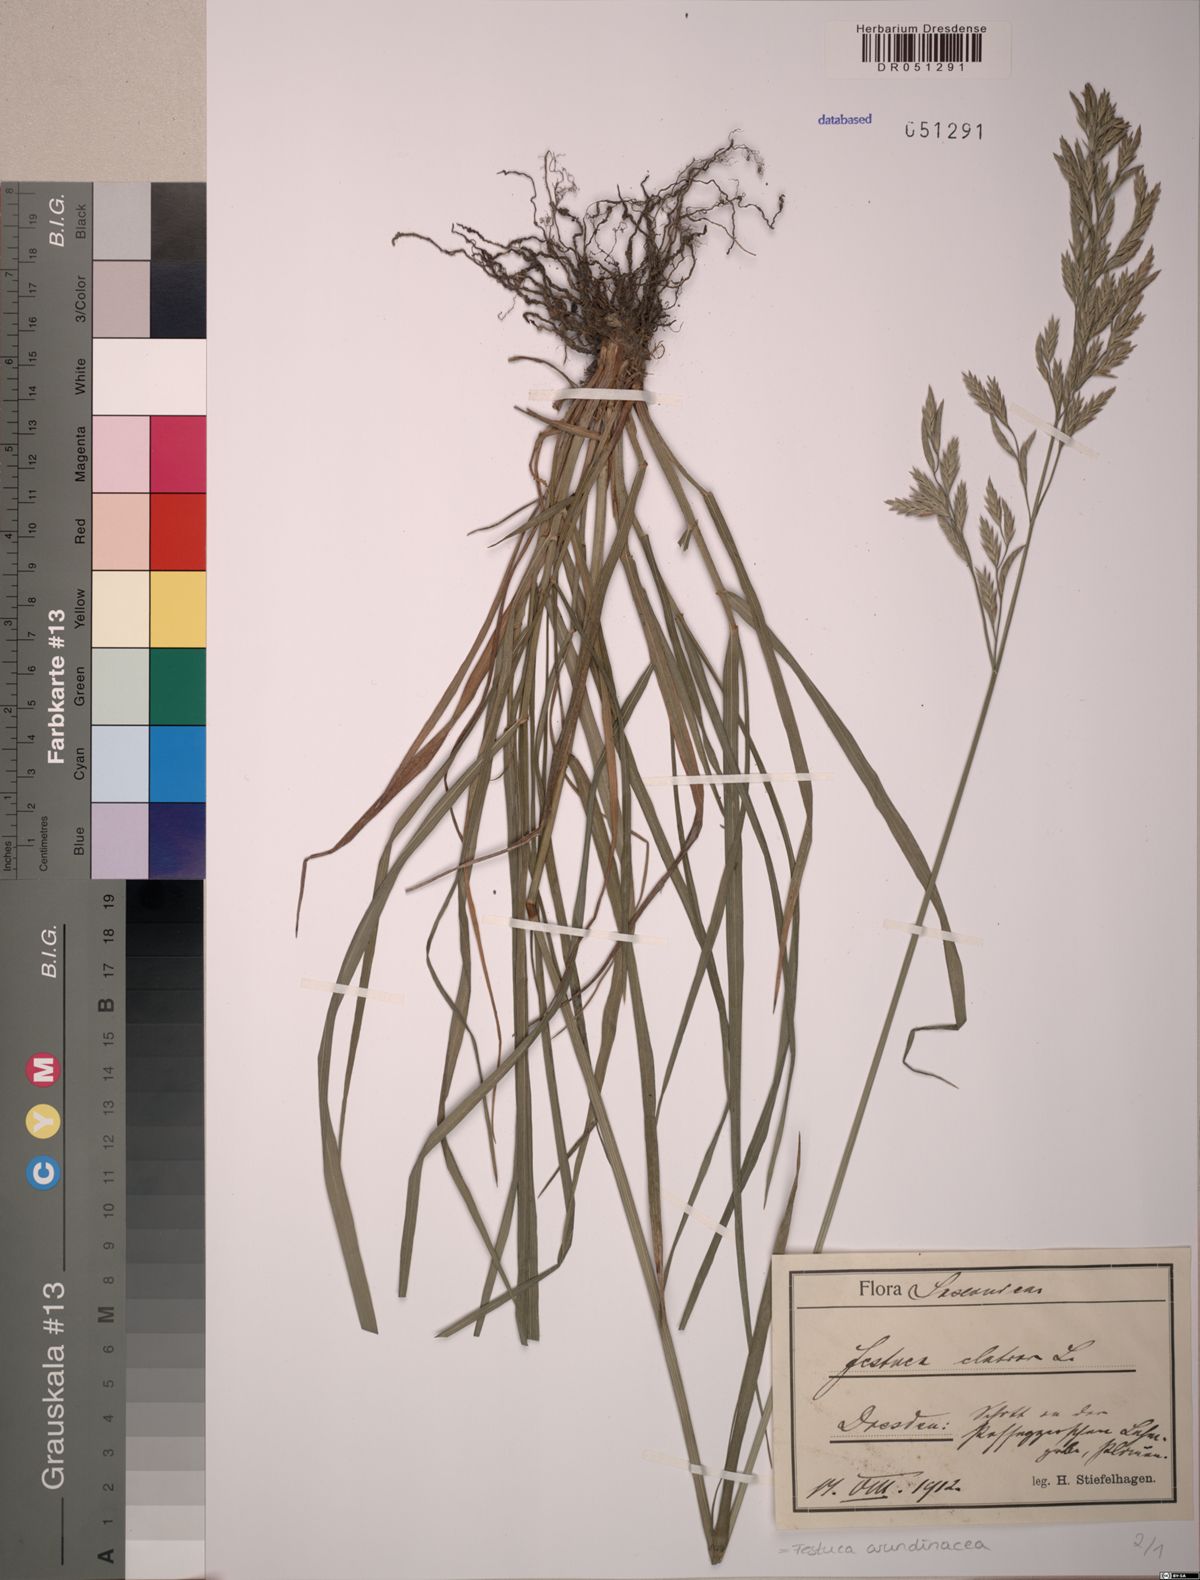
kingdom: Plantae
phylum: Tracheophyta
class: Liliopsida
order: Poales
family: Poaceae
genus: Lolium
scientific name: Lolium arundinaceum
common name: Reed fescue
